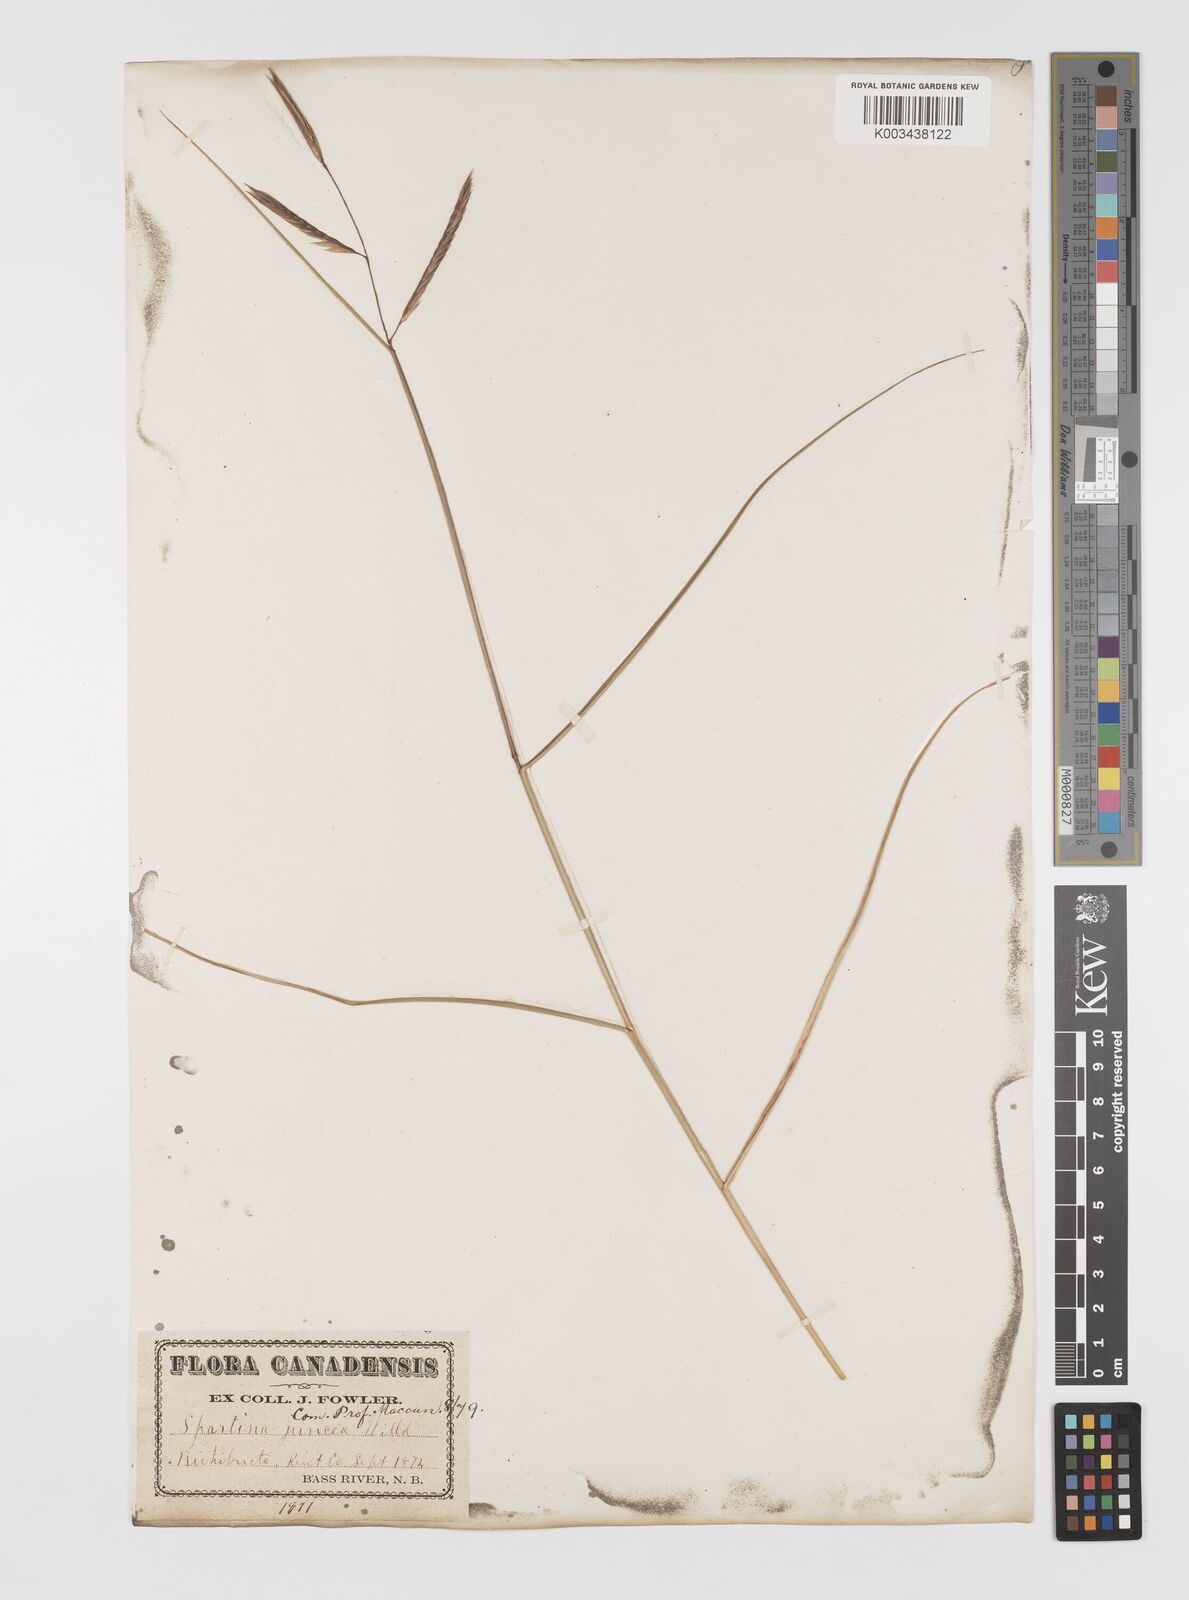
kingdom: Plantae
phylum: Tracheophyta
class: Liliopsida
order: Poales
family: Poaceae
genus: Sporobolus
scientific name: Sporobolus pumilus
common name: Highwater grass
